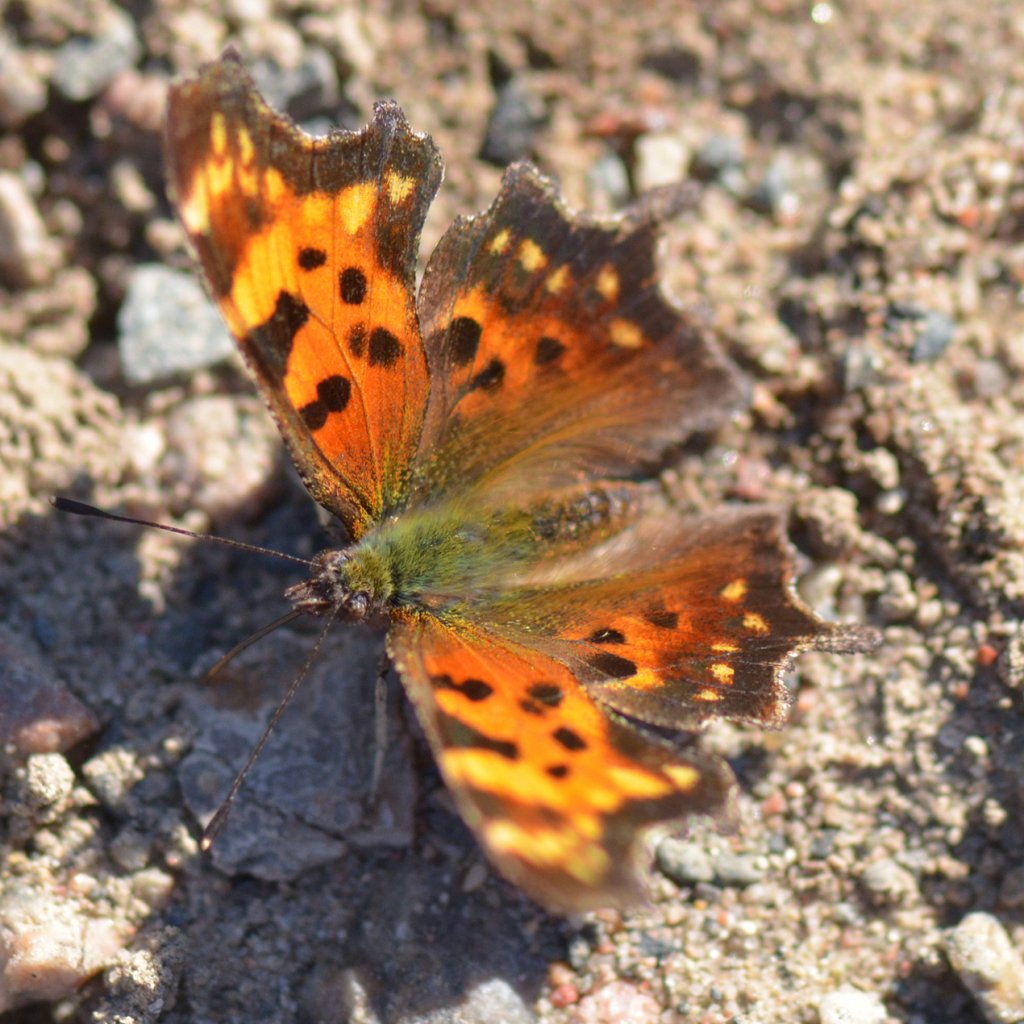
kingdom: Animalia
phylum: Arthropoda
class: Insecta
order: Lepidoptera
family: Nymphalidae
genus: Polygonia
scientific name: Polygonia faunus
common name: Green Comma
